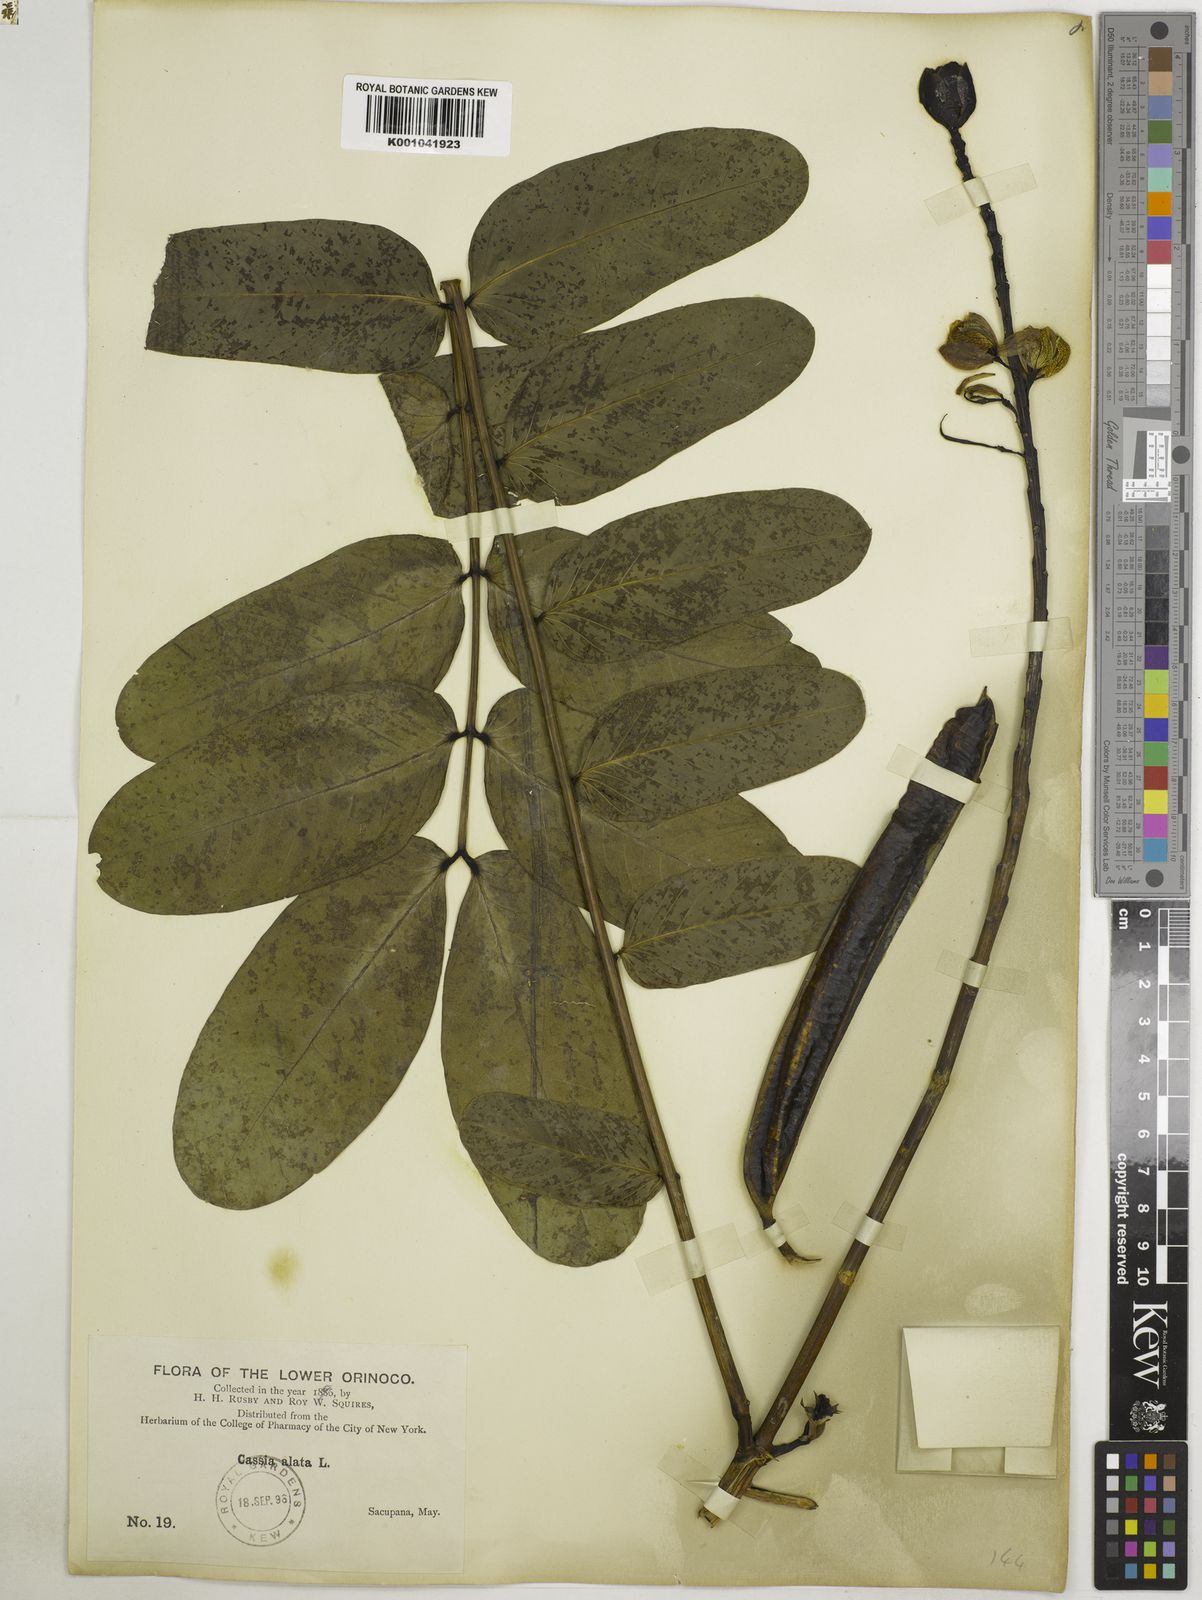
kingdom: Plantae
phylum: Tracheophyta
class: Magnoliopsida
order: Fabales
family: Fabaceae
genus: Senna
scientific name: Senna alata
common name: Emperor's candlesticks
